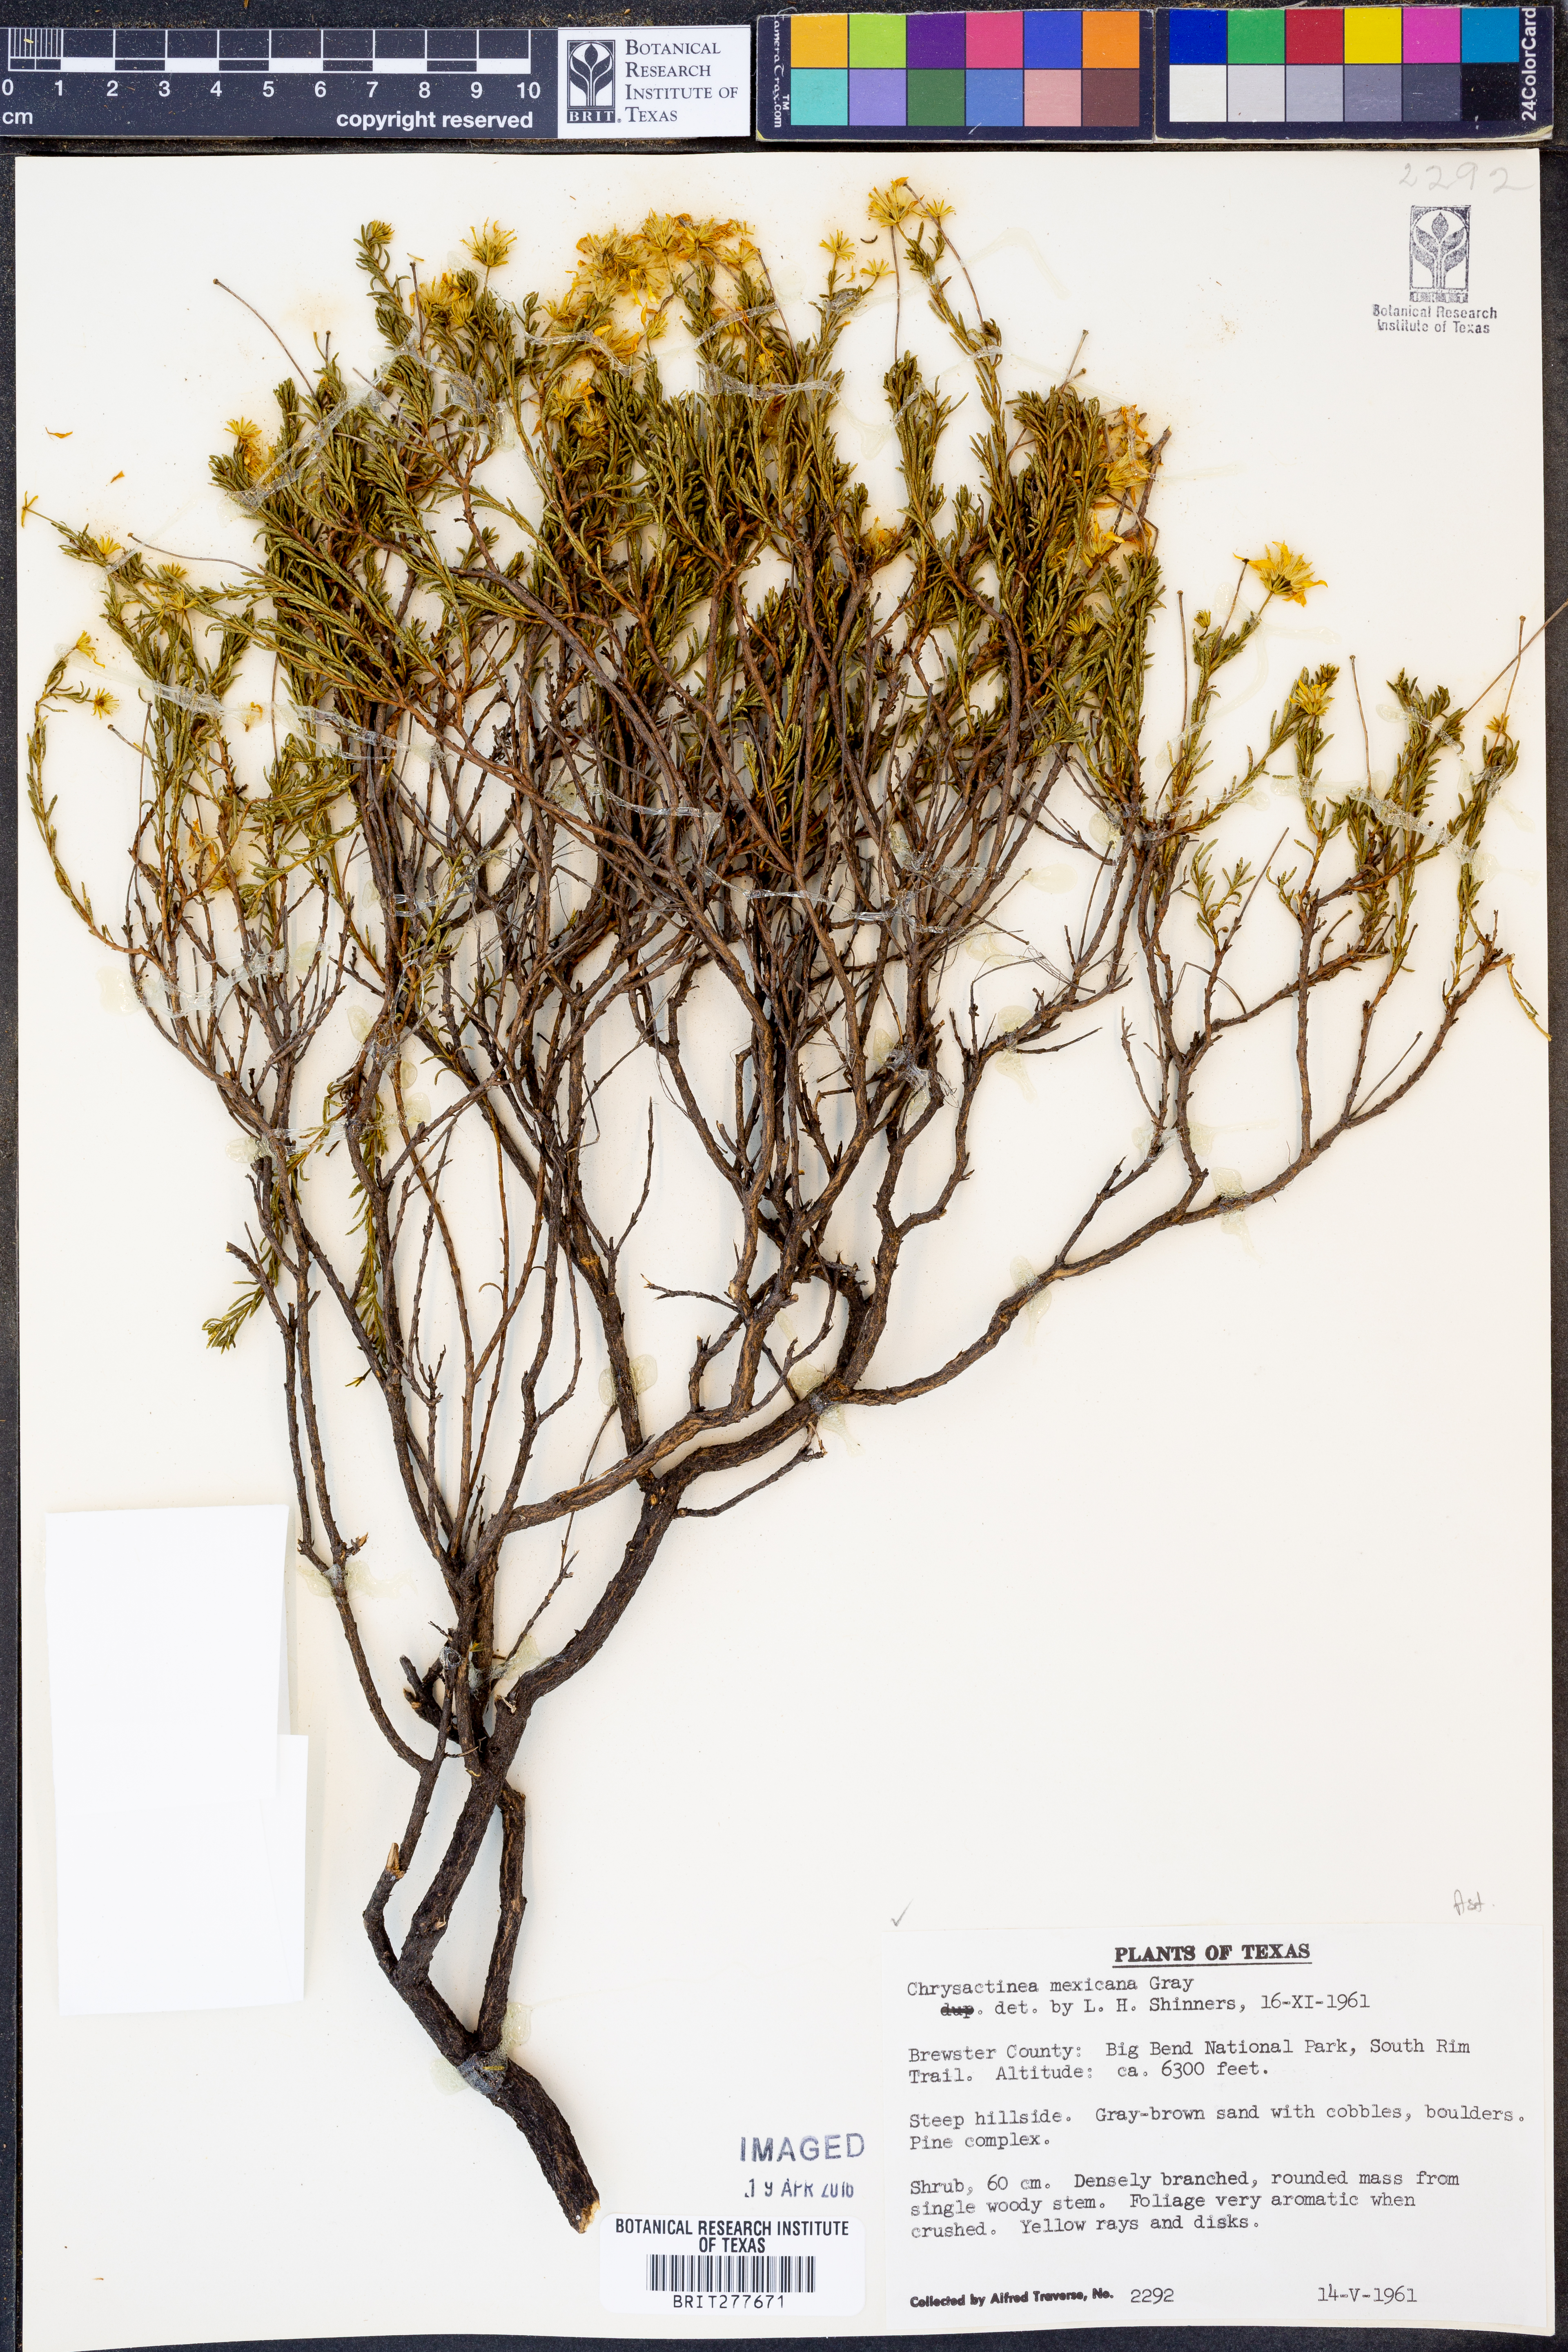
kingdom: Plantae
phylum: Tracheophyta
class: Magnoliopsida
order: Asterales
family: Asteraceae
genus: Chrysactinia
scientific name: Chrysactinia mexicana
